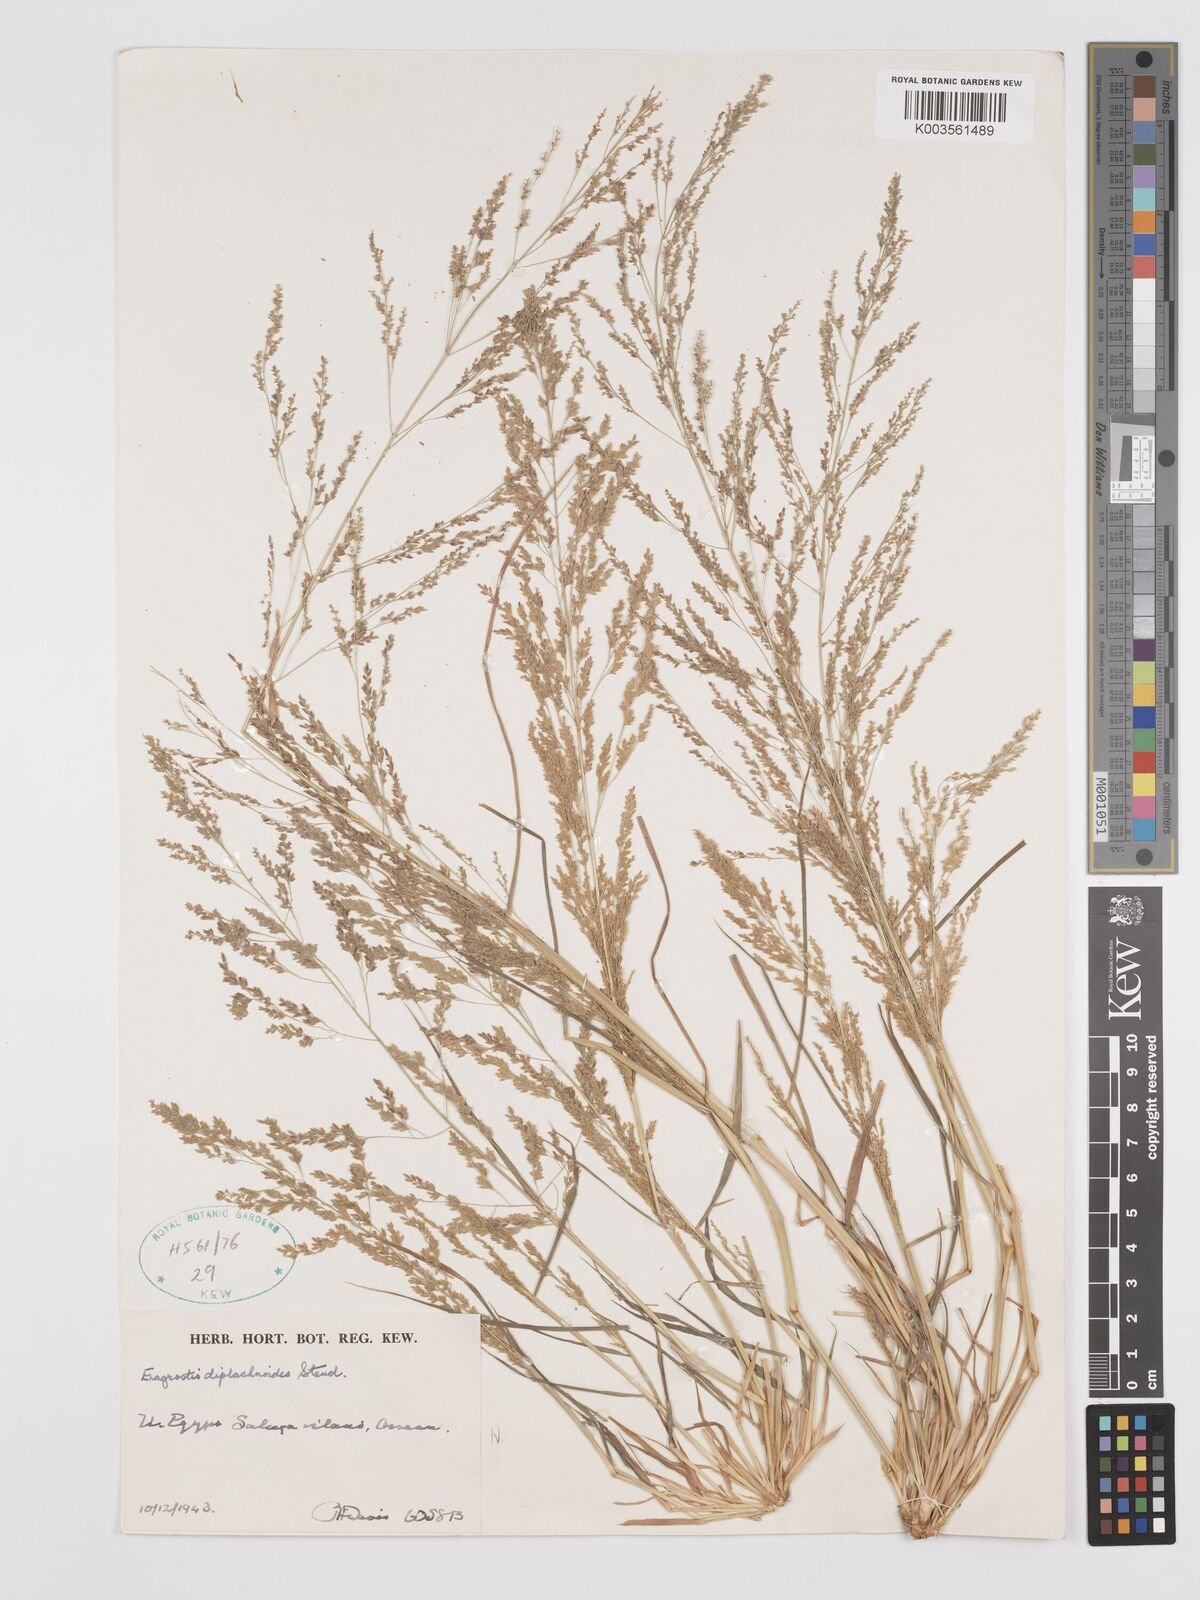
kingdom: Plantae
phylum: Tracheophyta
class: Liliopsida
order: Poales
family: Poaceae
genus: Eragrostis
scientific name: Eragrostis japonica
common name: Pond lovegrass
